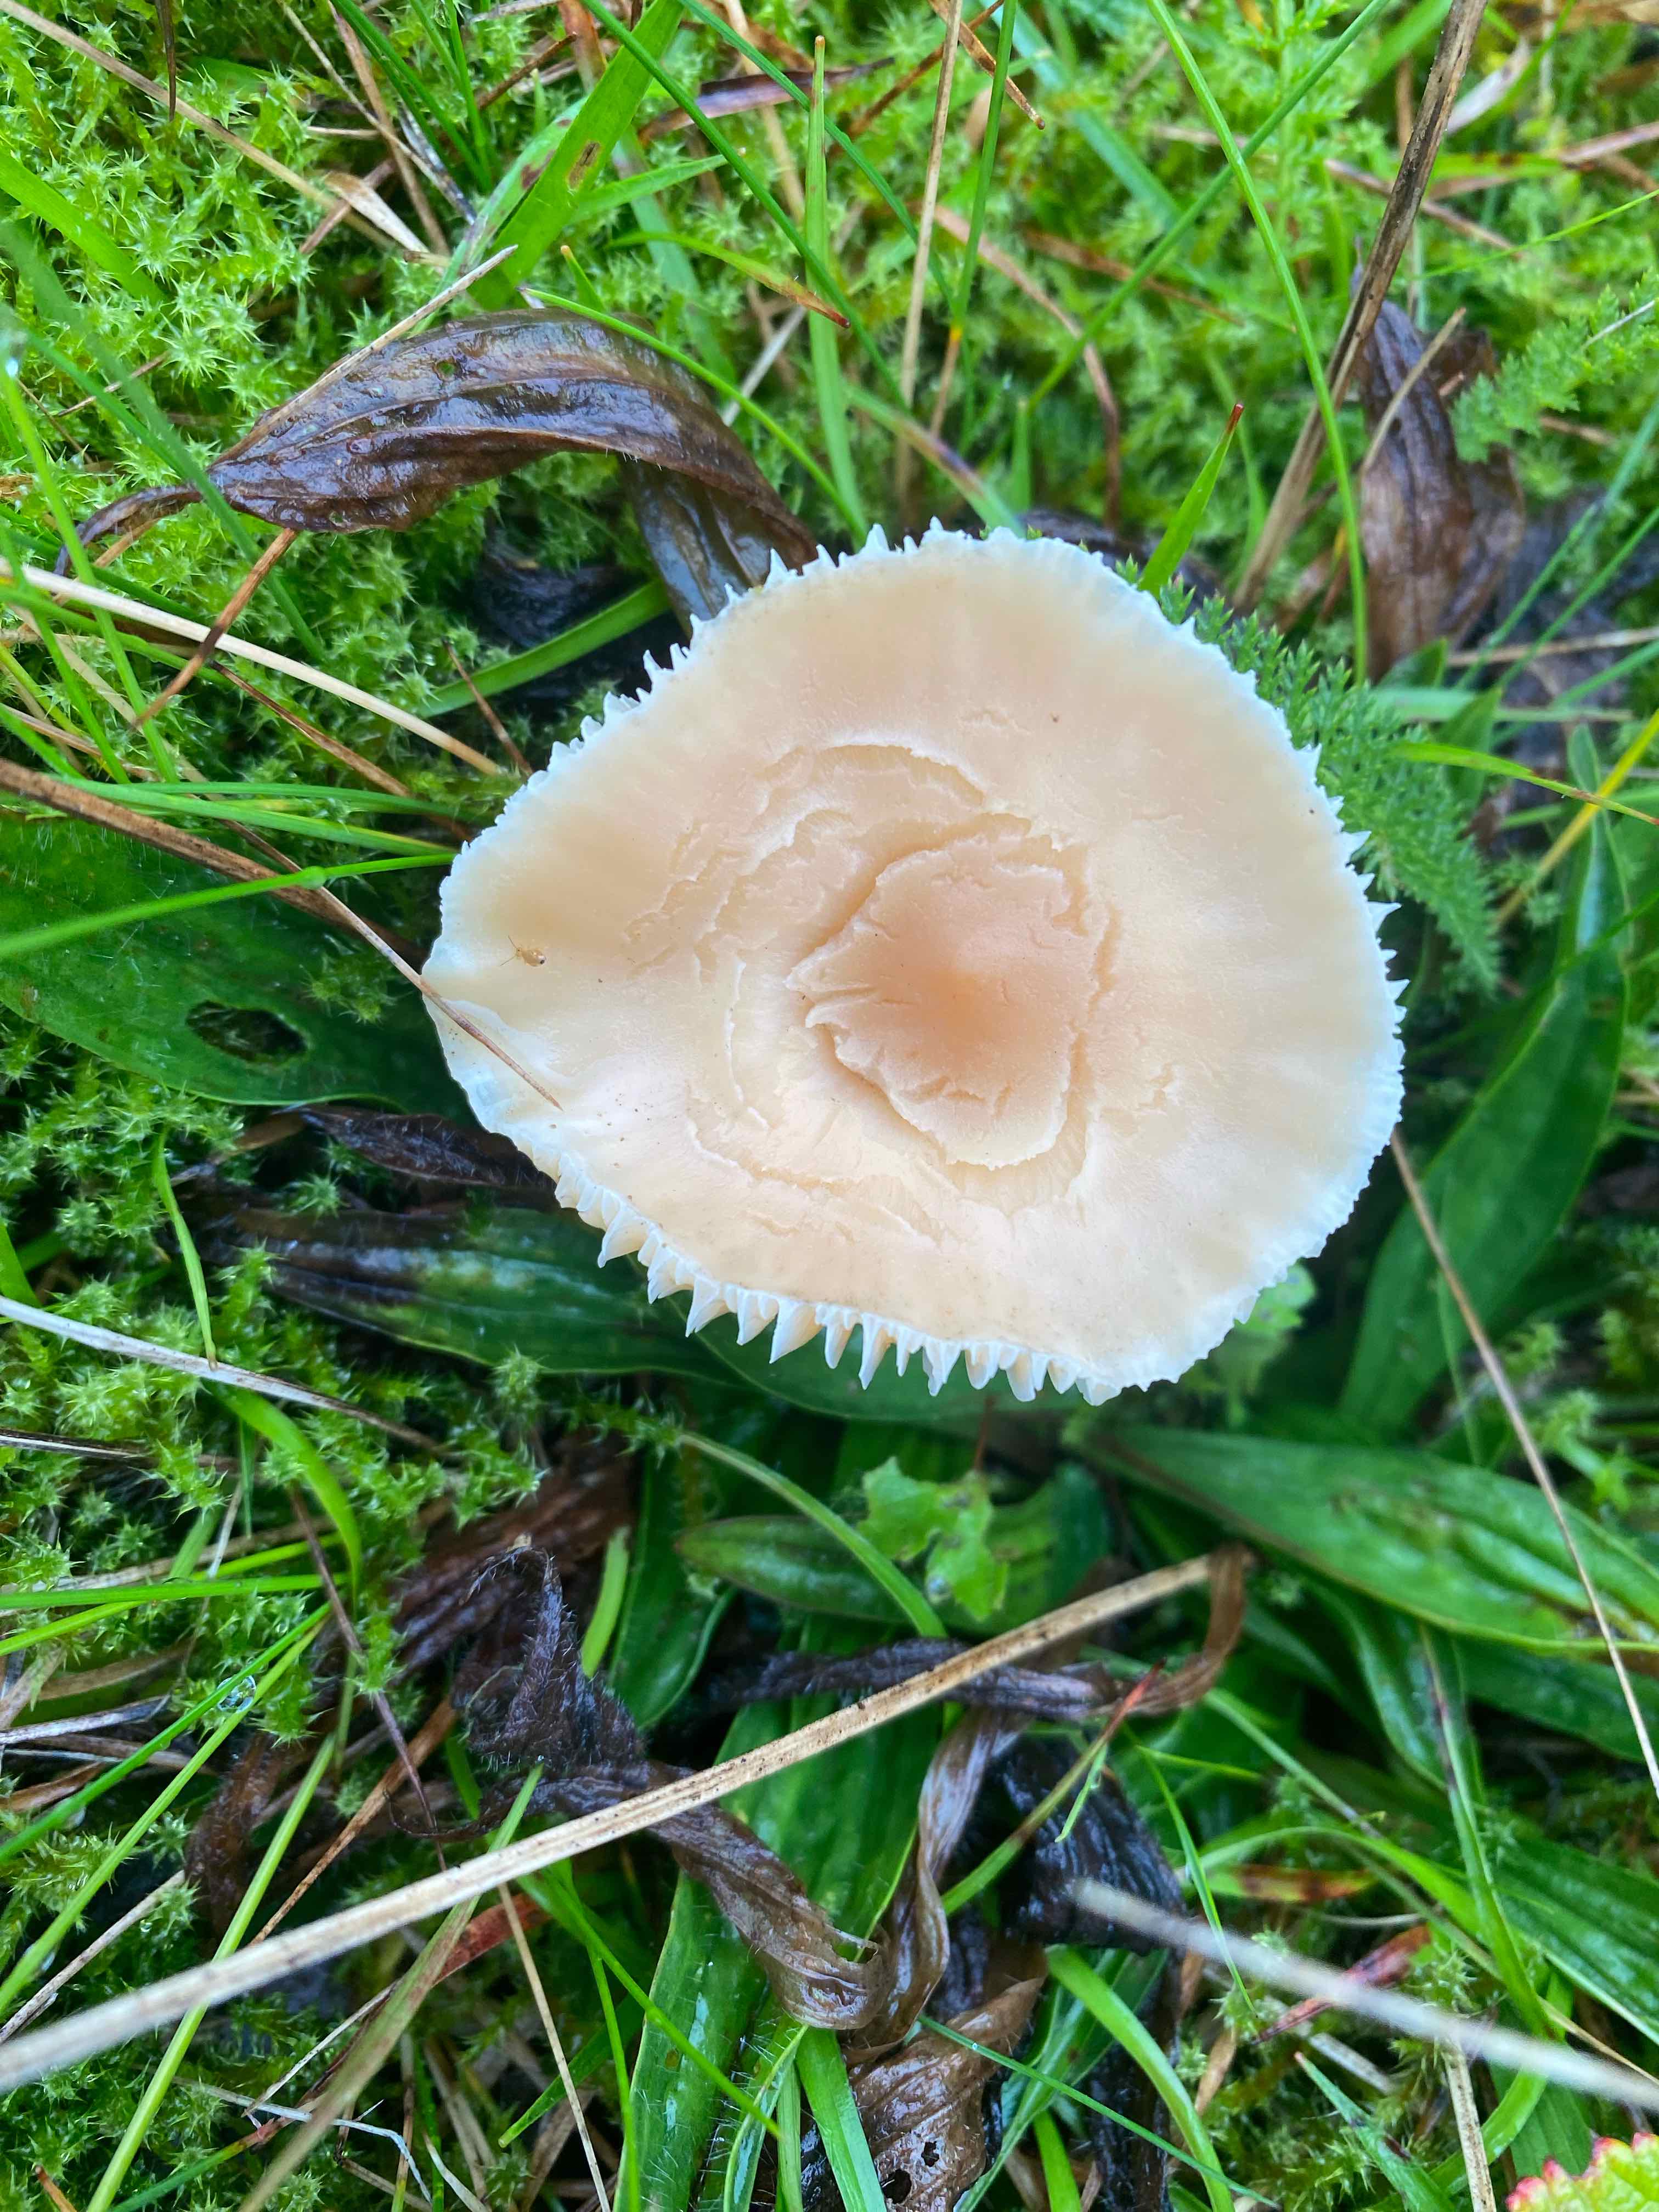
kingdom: Fungi
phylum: Basidiomycota
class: Agaricomycetes
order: Agaricales
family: Hygrophoraceae
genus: Cuphophyllus
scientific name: Cuphophyllus pratensis
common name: eng-vokshat
